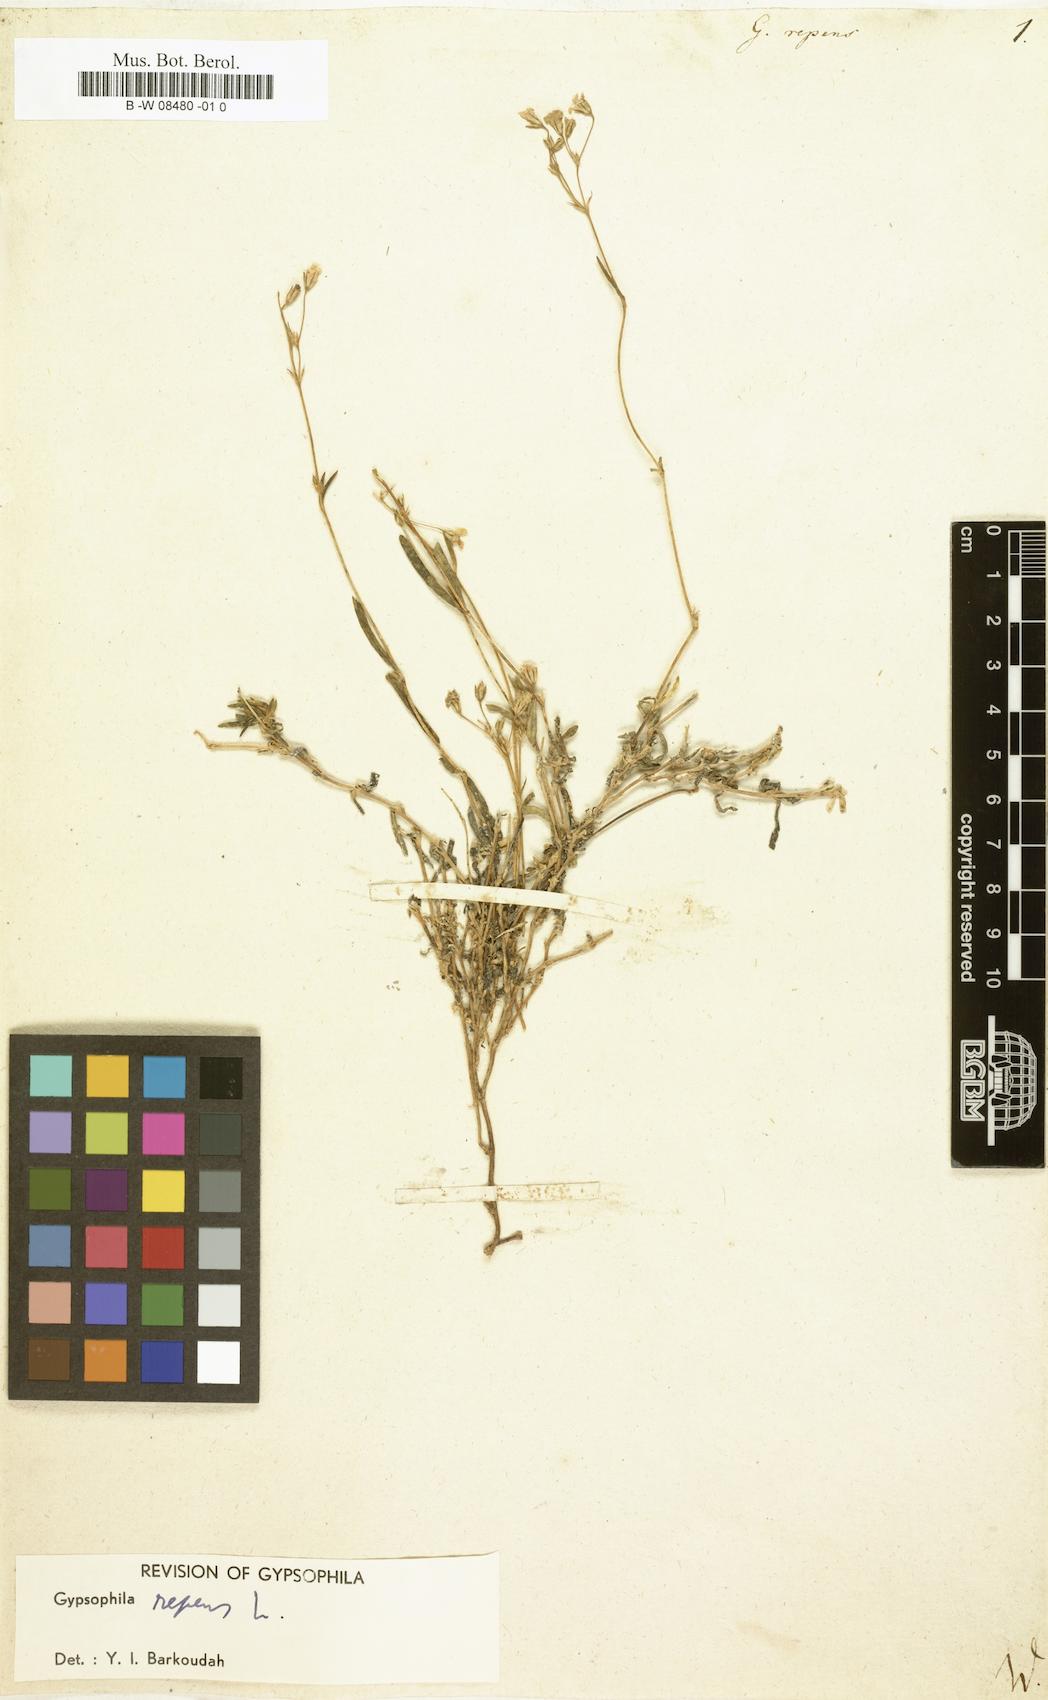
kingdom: Plantae
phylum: Tracheophyta
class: Magnoliopsida
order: Caryophyllales
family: Caryophyllaceae
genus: Gypsophila
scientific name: Gypsophila repens
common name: Creeping baby's-breath
